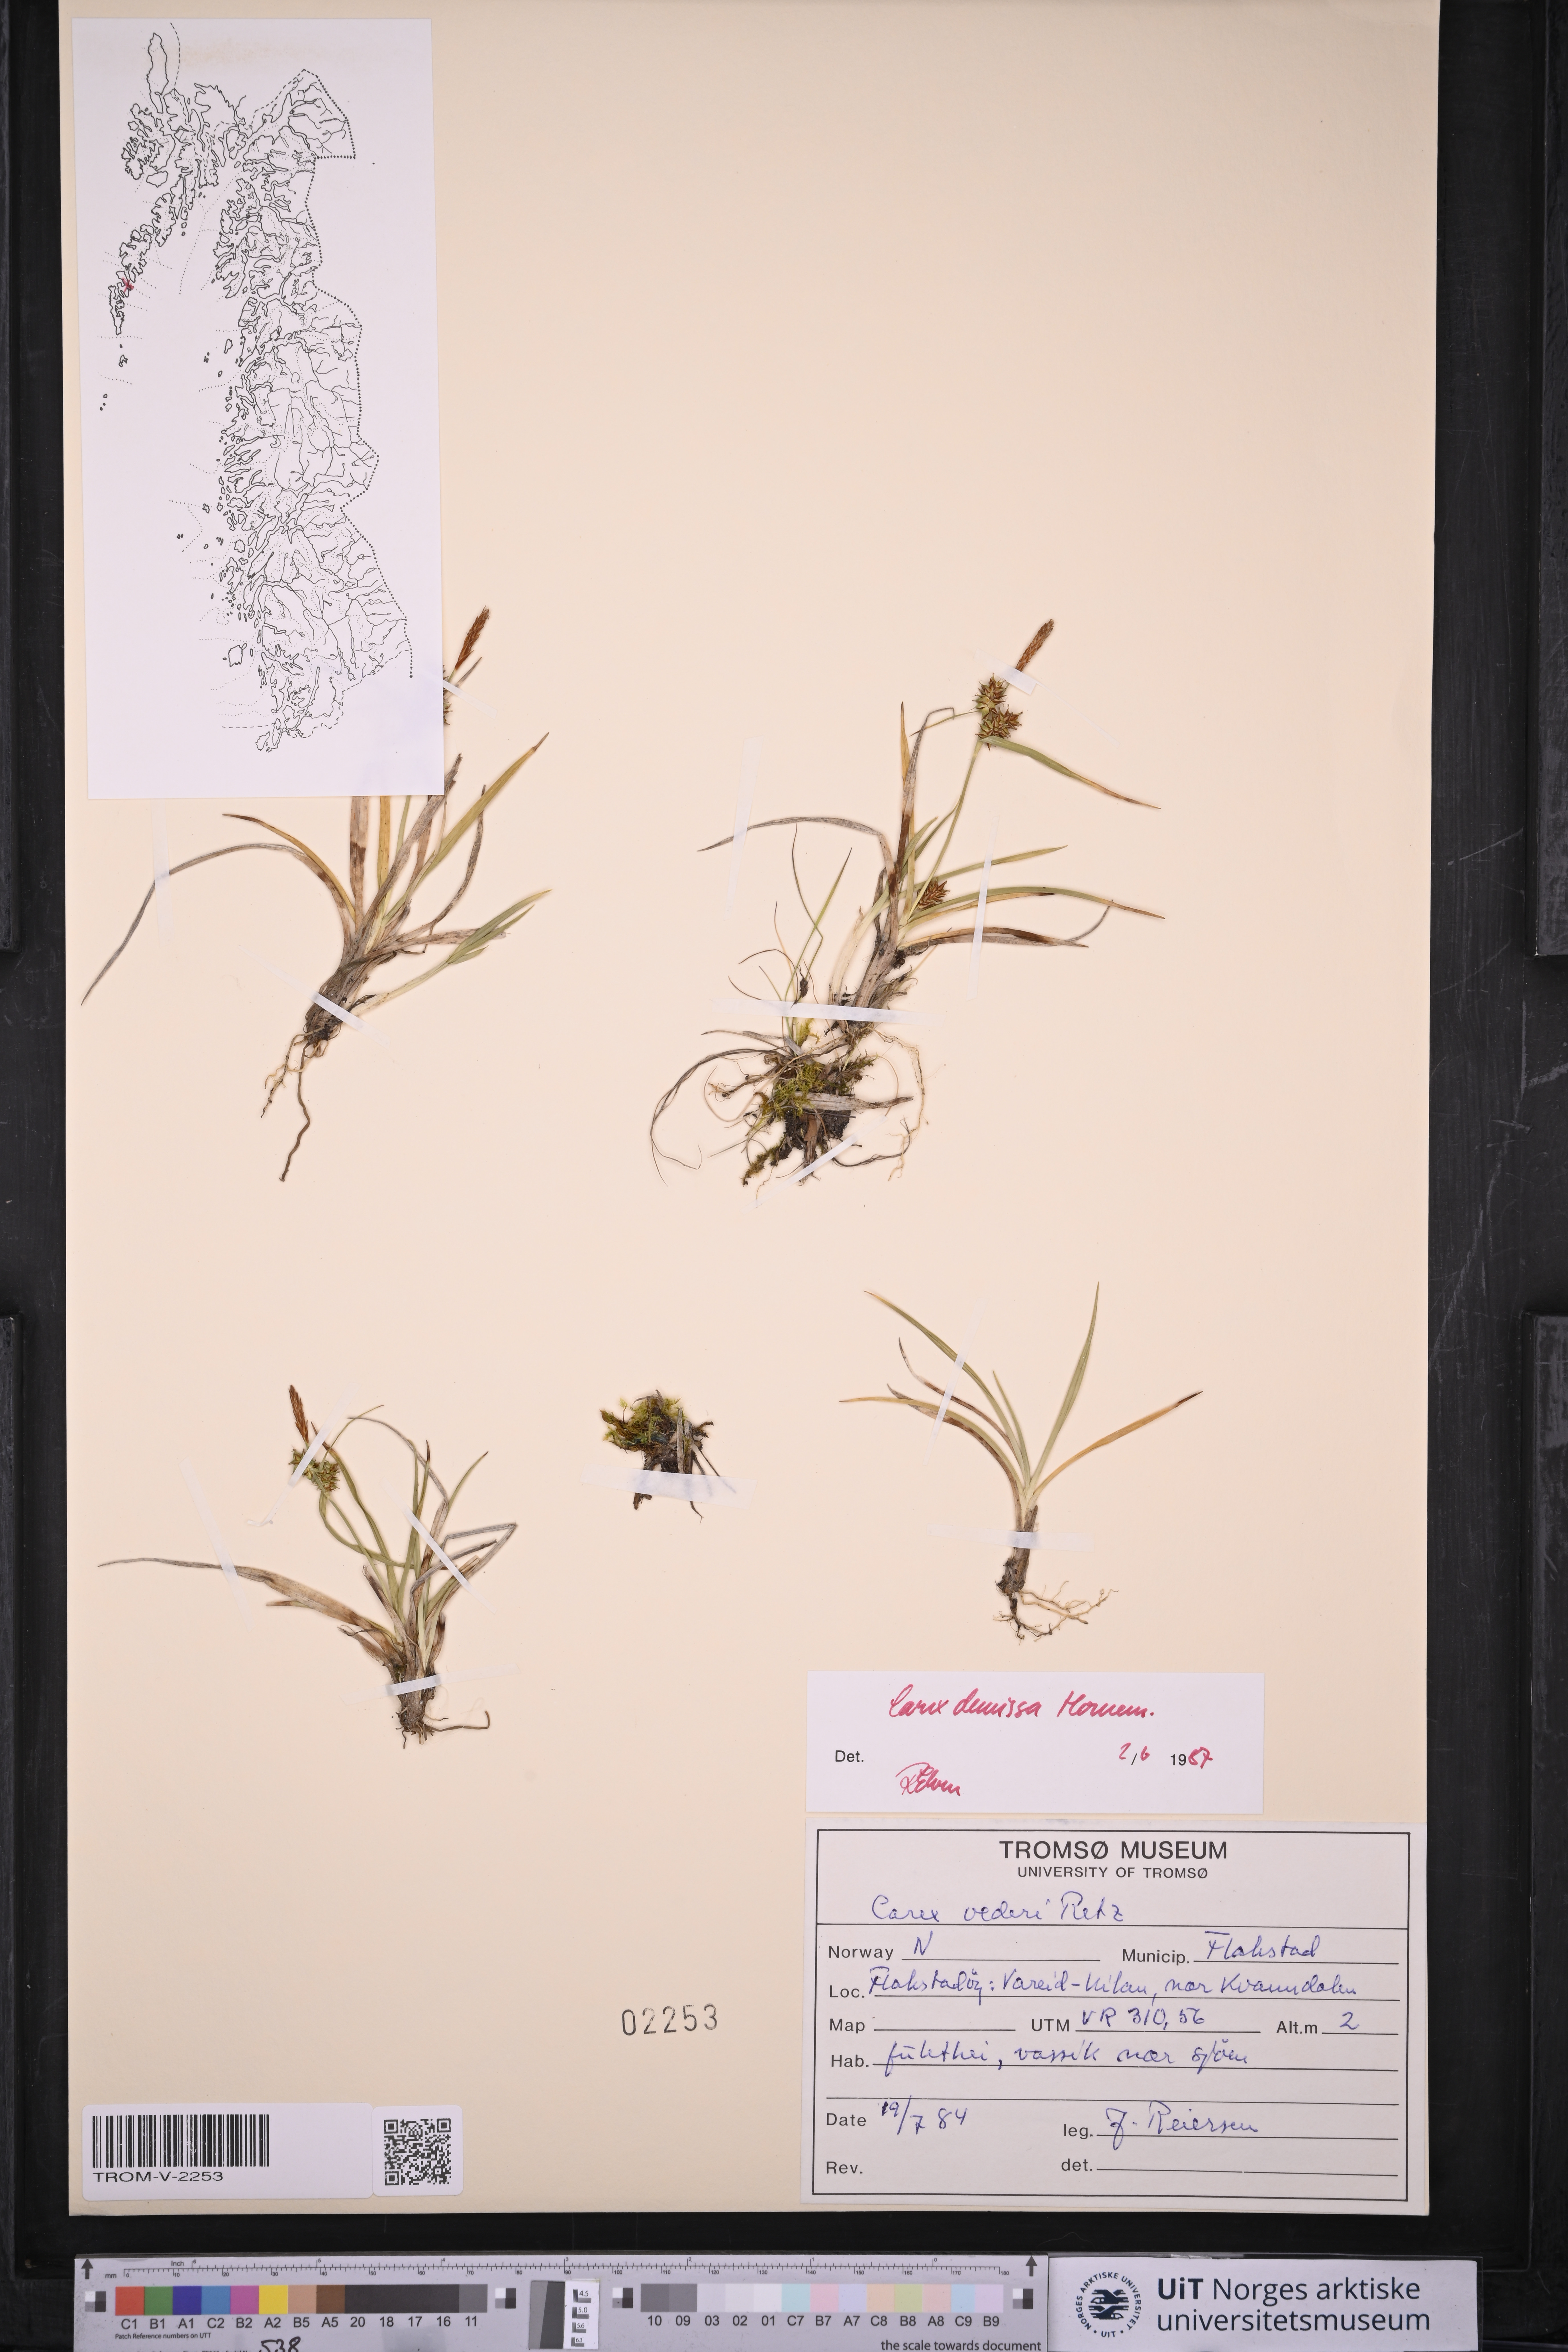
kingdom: Plantae
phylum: Tracheophyta
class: Liliopsida
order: Poales
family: Cyperaceae
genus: Carex
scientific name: Carex demissa
